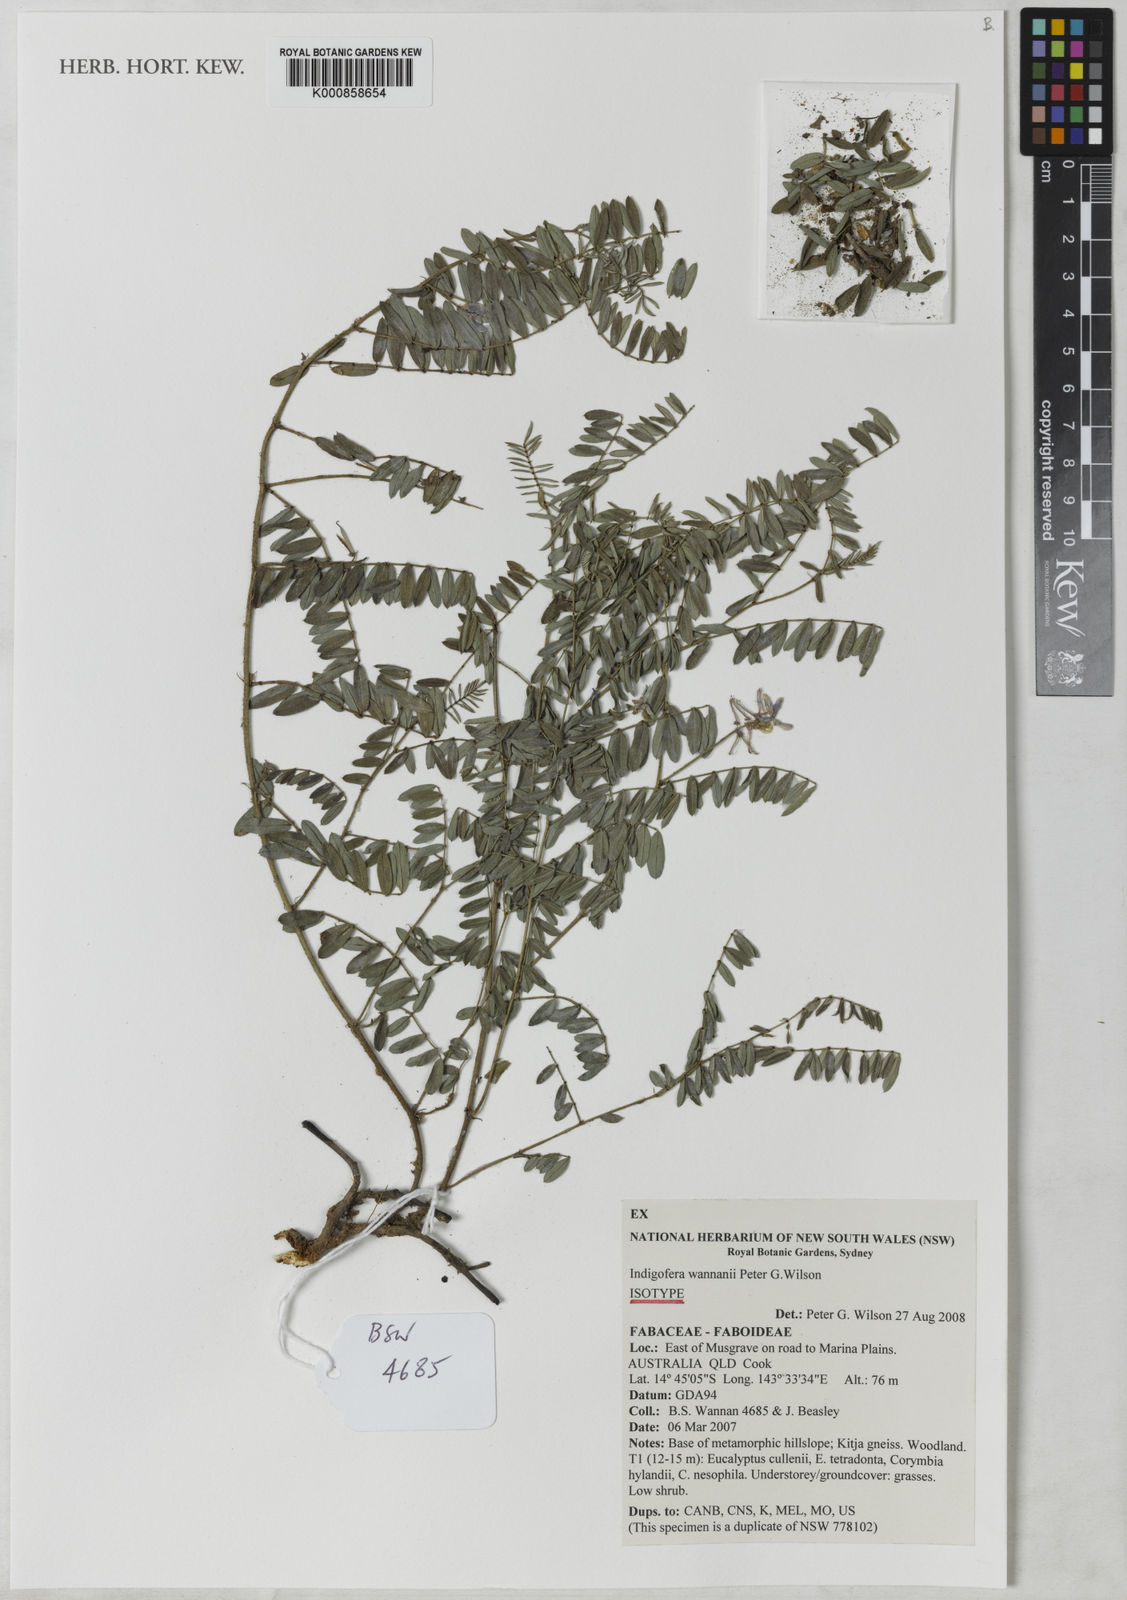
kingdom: Plantae
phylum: Tracheophyta
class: Magnoliopsida
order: Fabales
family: Fabaceae
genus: Indigofera
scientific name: Indigofera wannanii
